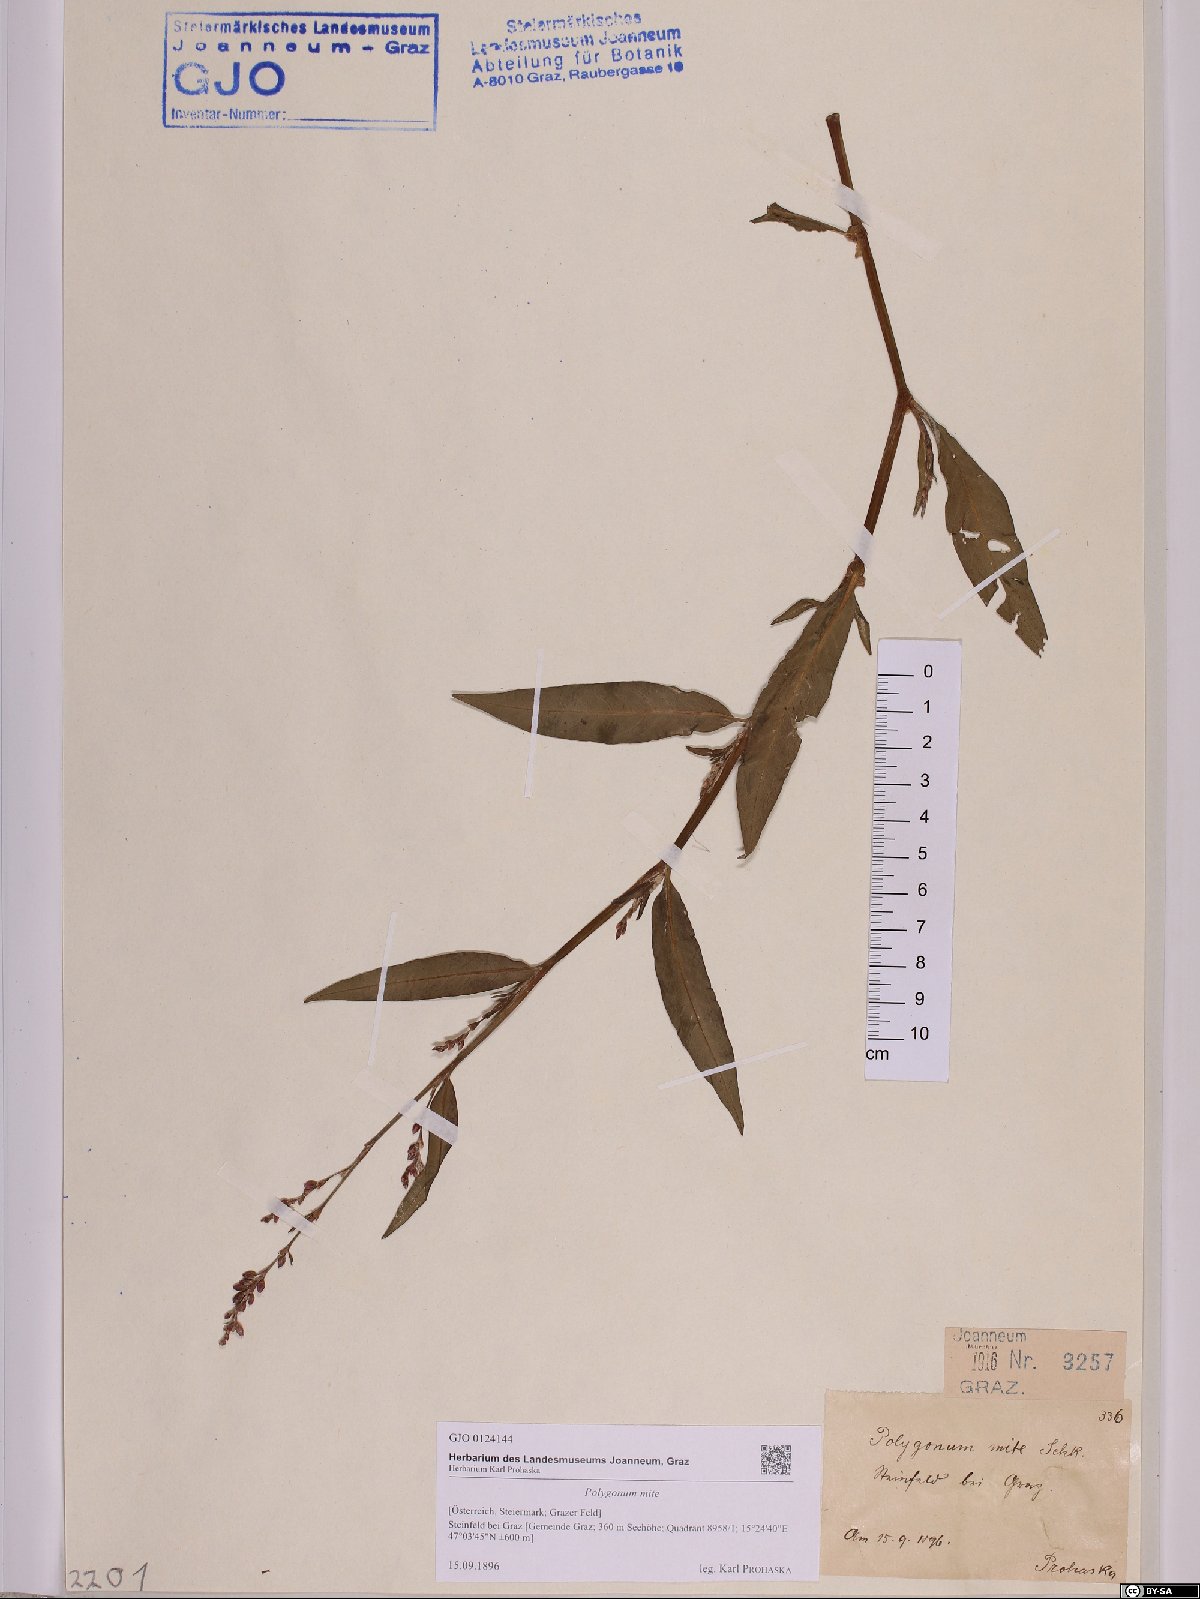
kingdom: Plantae
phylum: Tracheophyta
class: Magnoliopsida
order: Caryophyllales
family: Polygonaceae
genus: Persicaria
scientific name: Persicaria mitis
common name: Tasteless water-pepper
